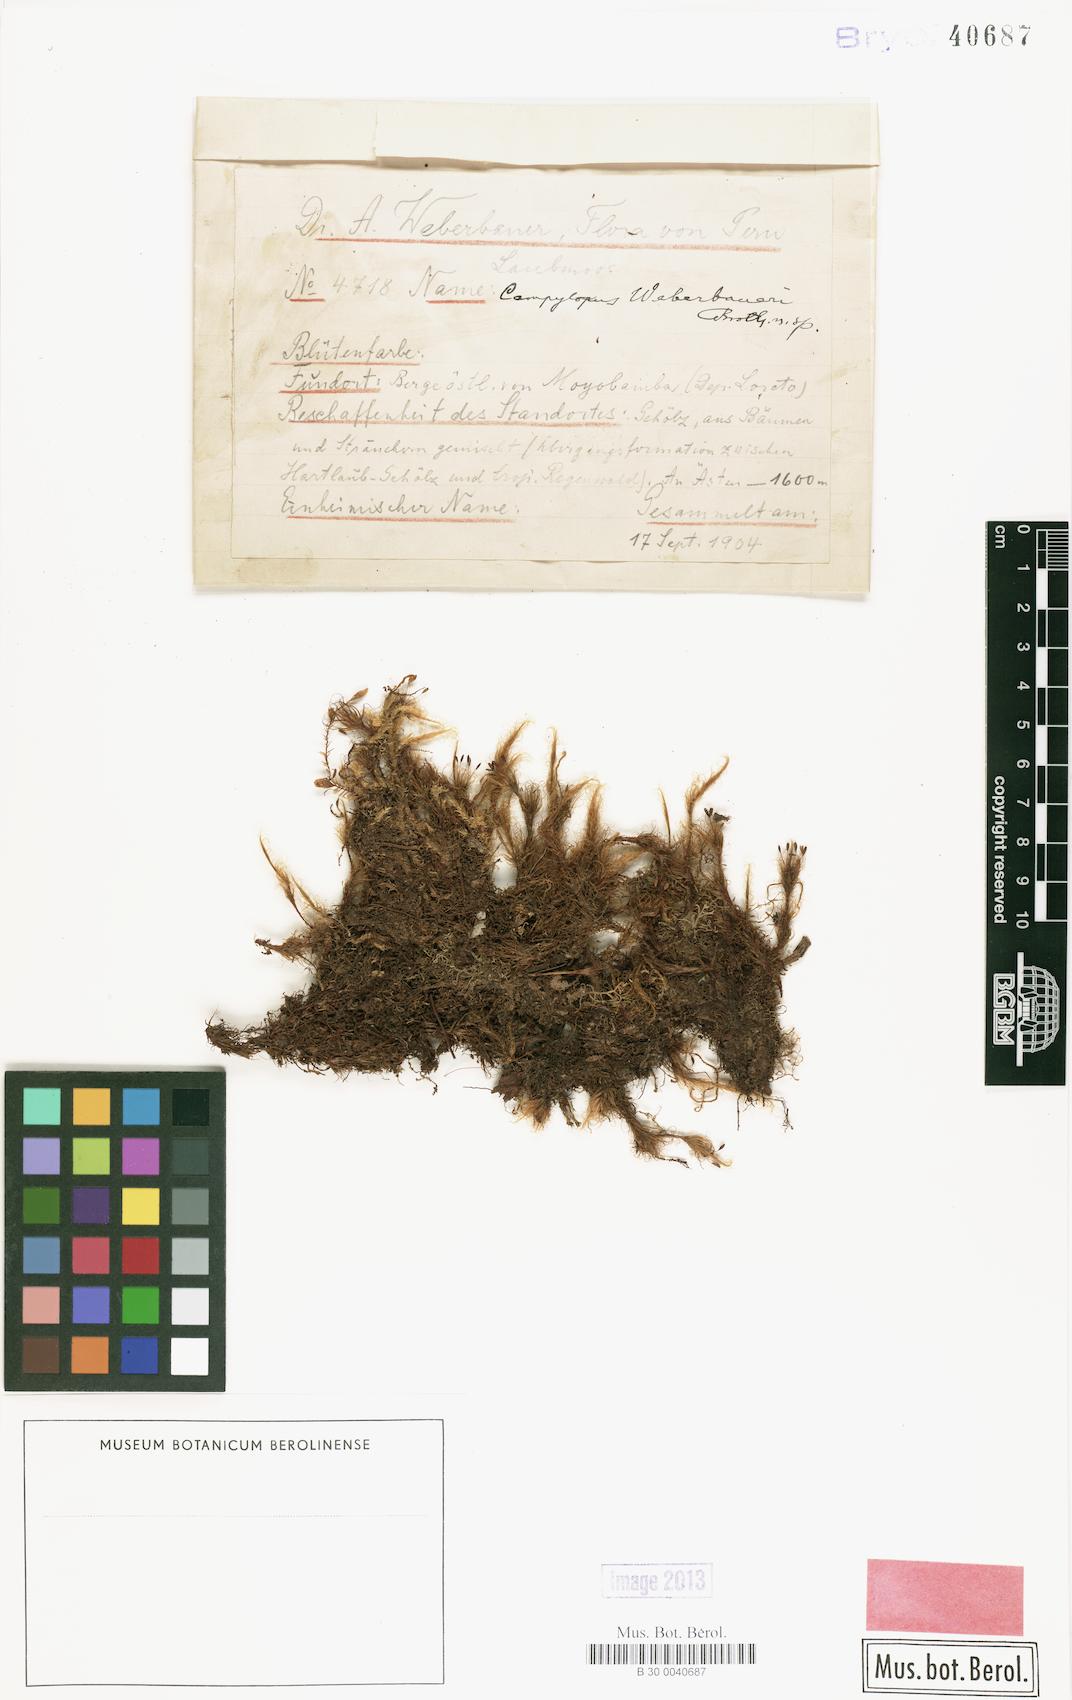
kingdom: Plantae
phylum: Bryophyta
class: Bryopsida
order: Dicranales
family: Leucobryaceae
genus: Campylopus
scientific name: Campylopus huallagensis
